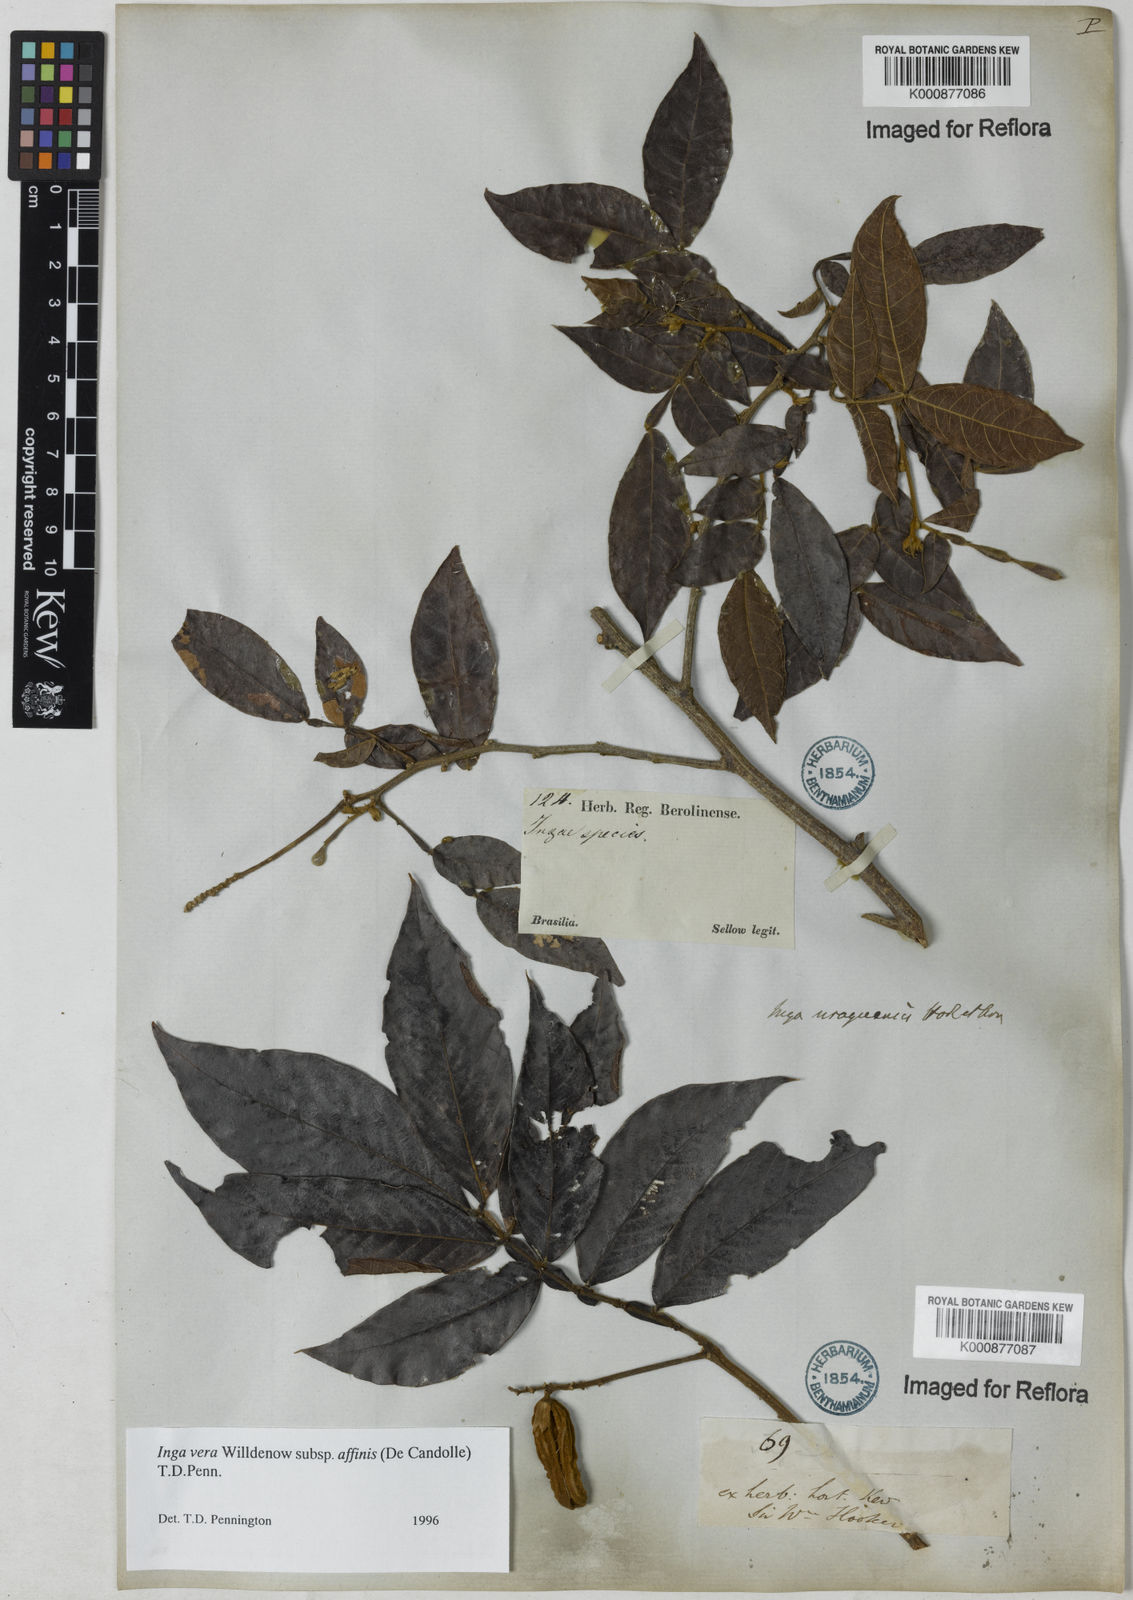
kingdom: Plantae
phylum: Tracheophyta
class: Magnoliopsida
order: Fabales
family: Fabaceae
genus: Inga
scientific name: Inga affinis
